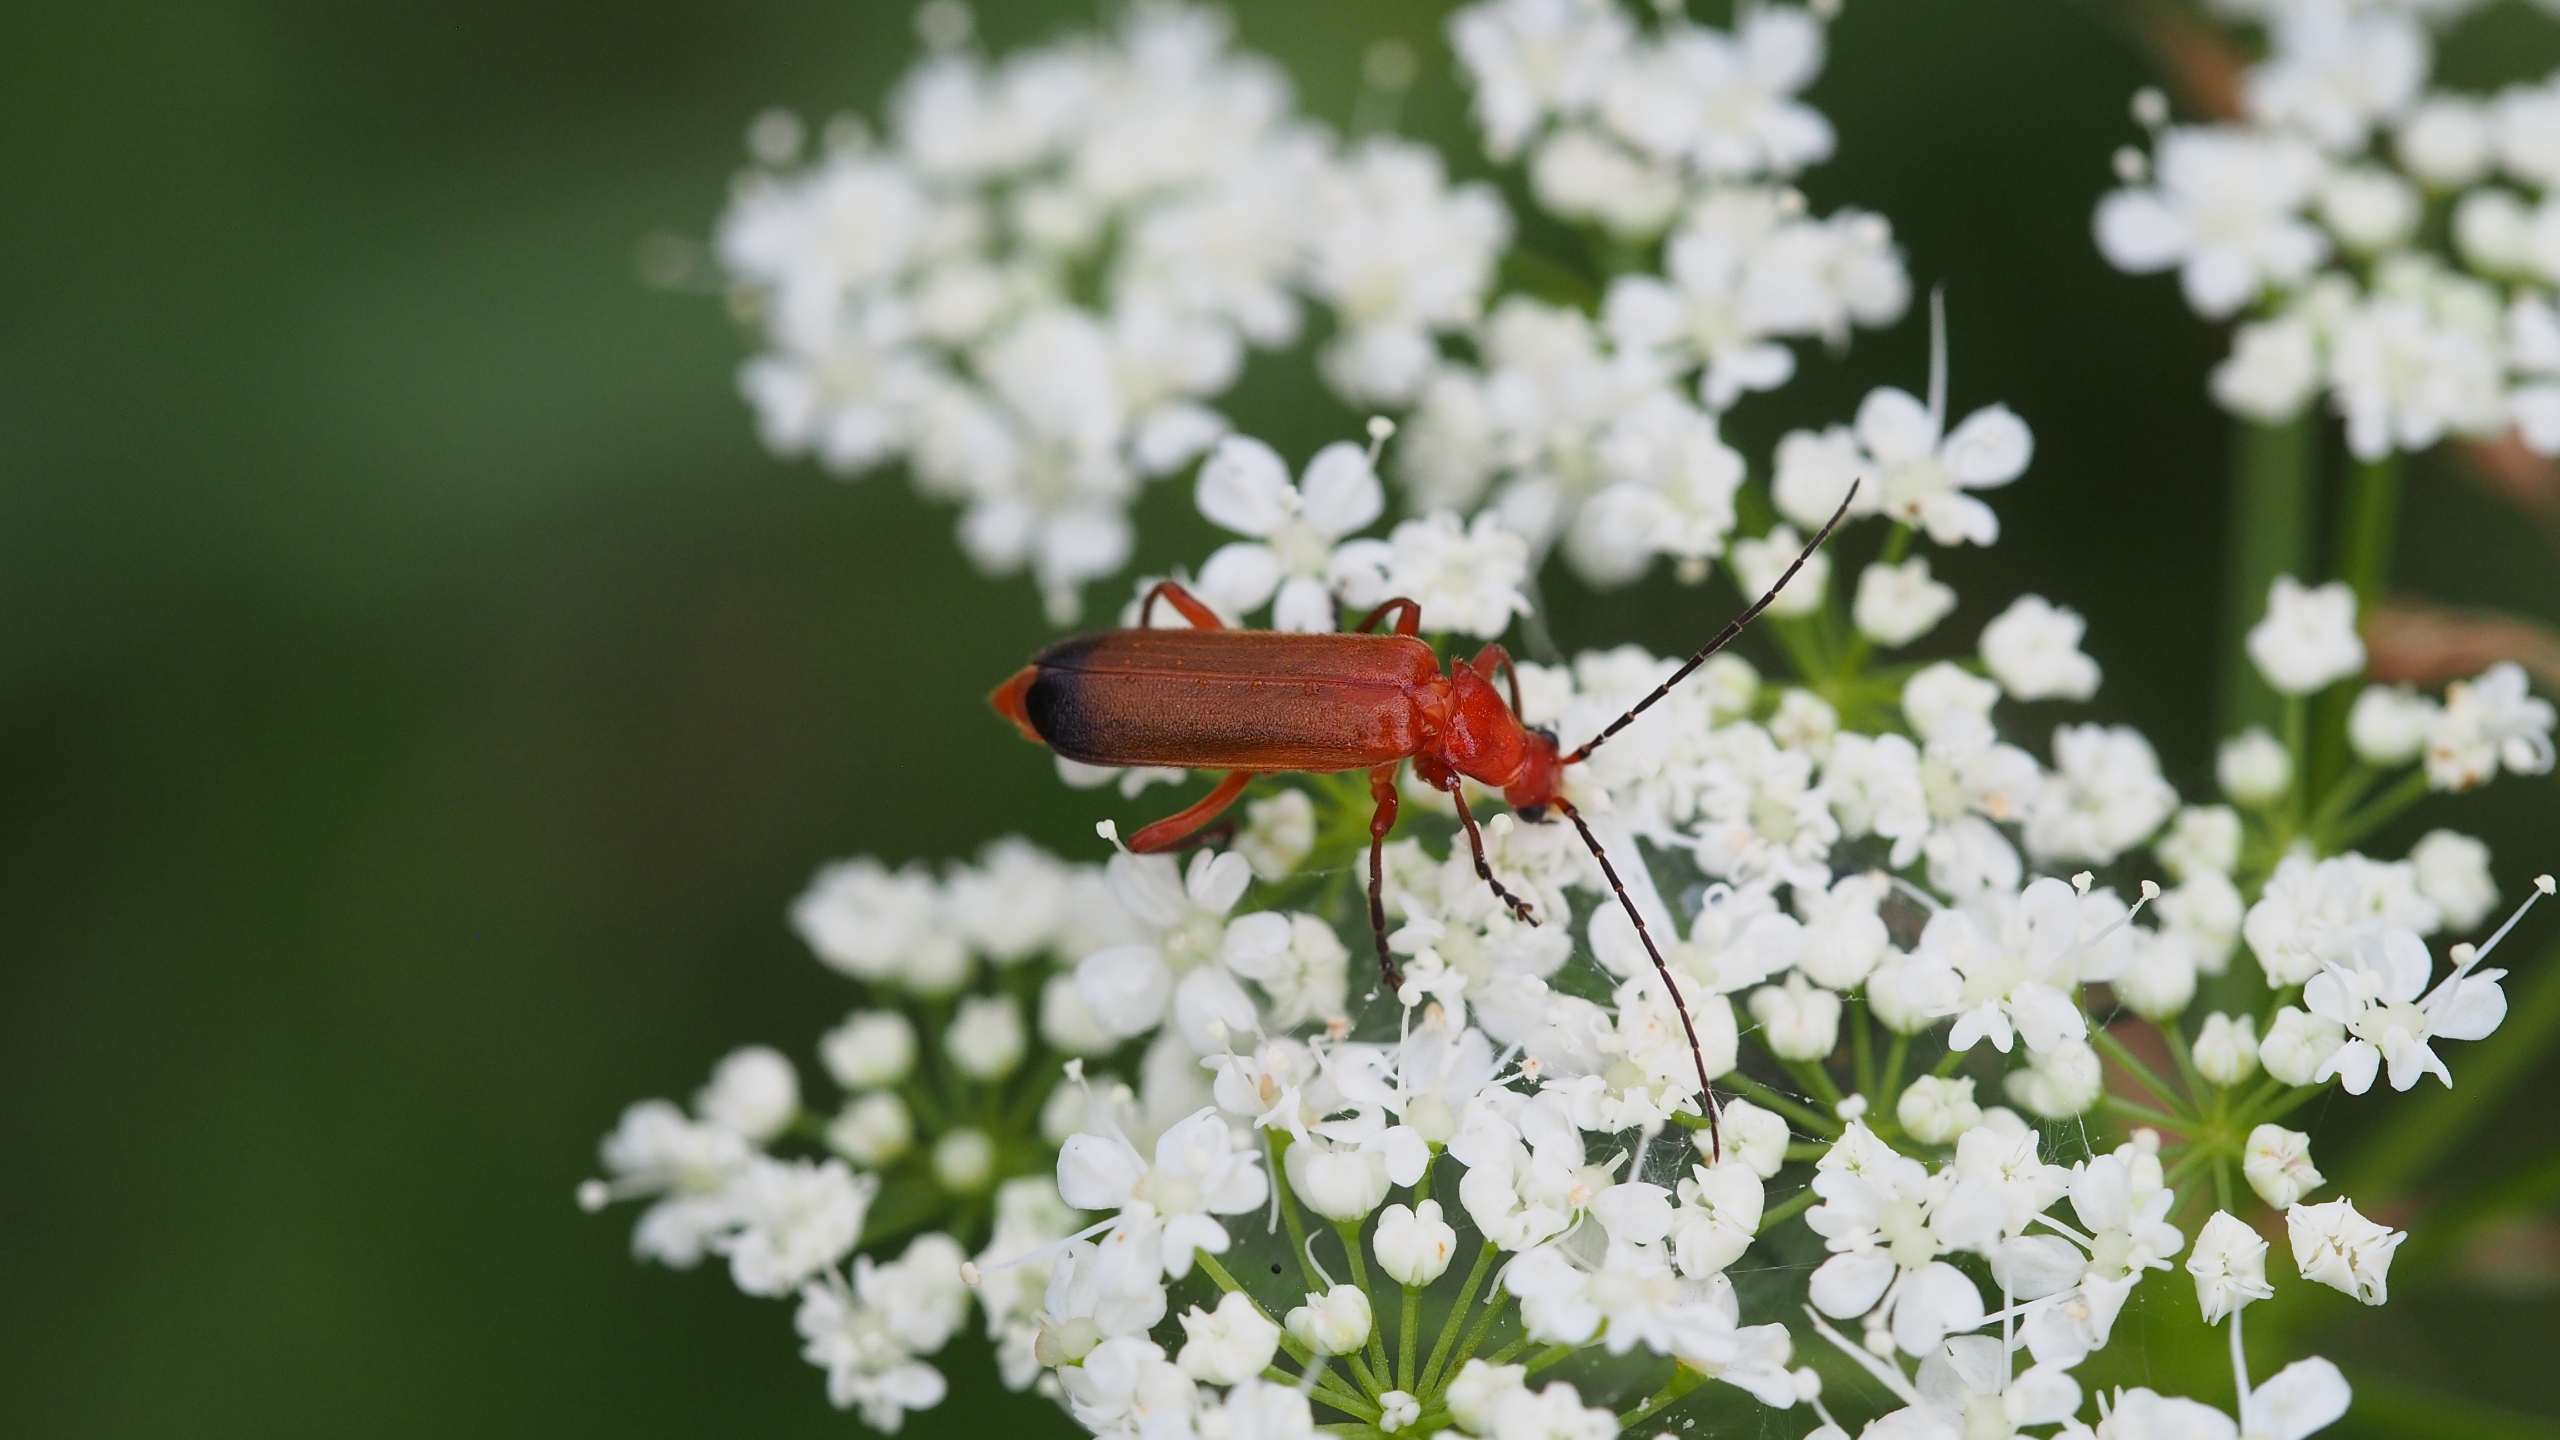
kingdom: Animalia
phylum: Arthropoda
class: Insecta
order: Coleoptera
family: Cantharidae
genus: Rhagonycha
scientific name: Rhagonycha fulva
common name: Præstebille
